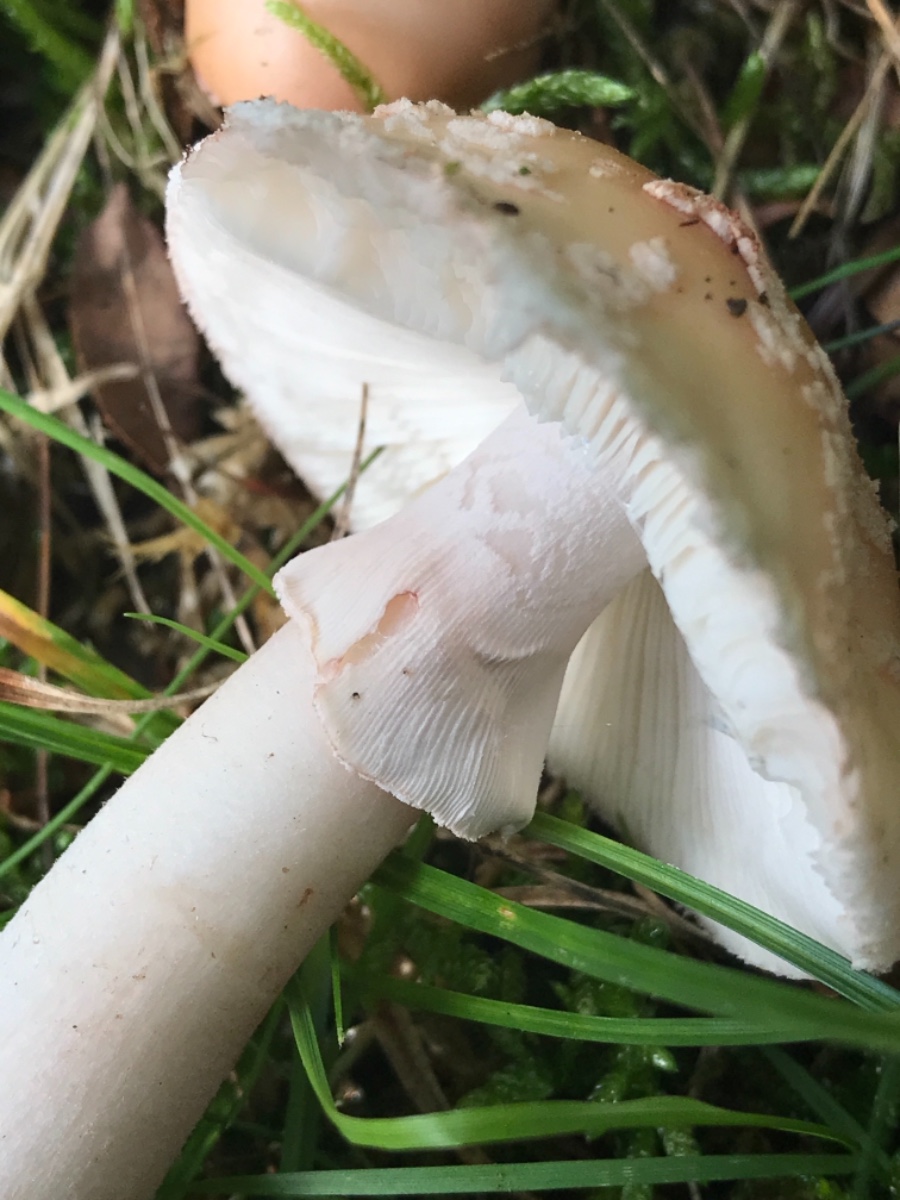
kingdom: Fungi
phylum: Basidiomycota
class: Agaricomycetes
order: Agaricales
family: Amanitaceae
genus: Amanita
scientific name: Amanita rubescens
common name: rødmende fluesvamp
